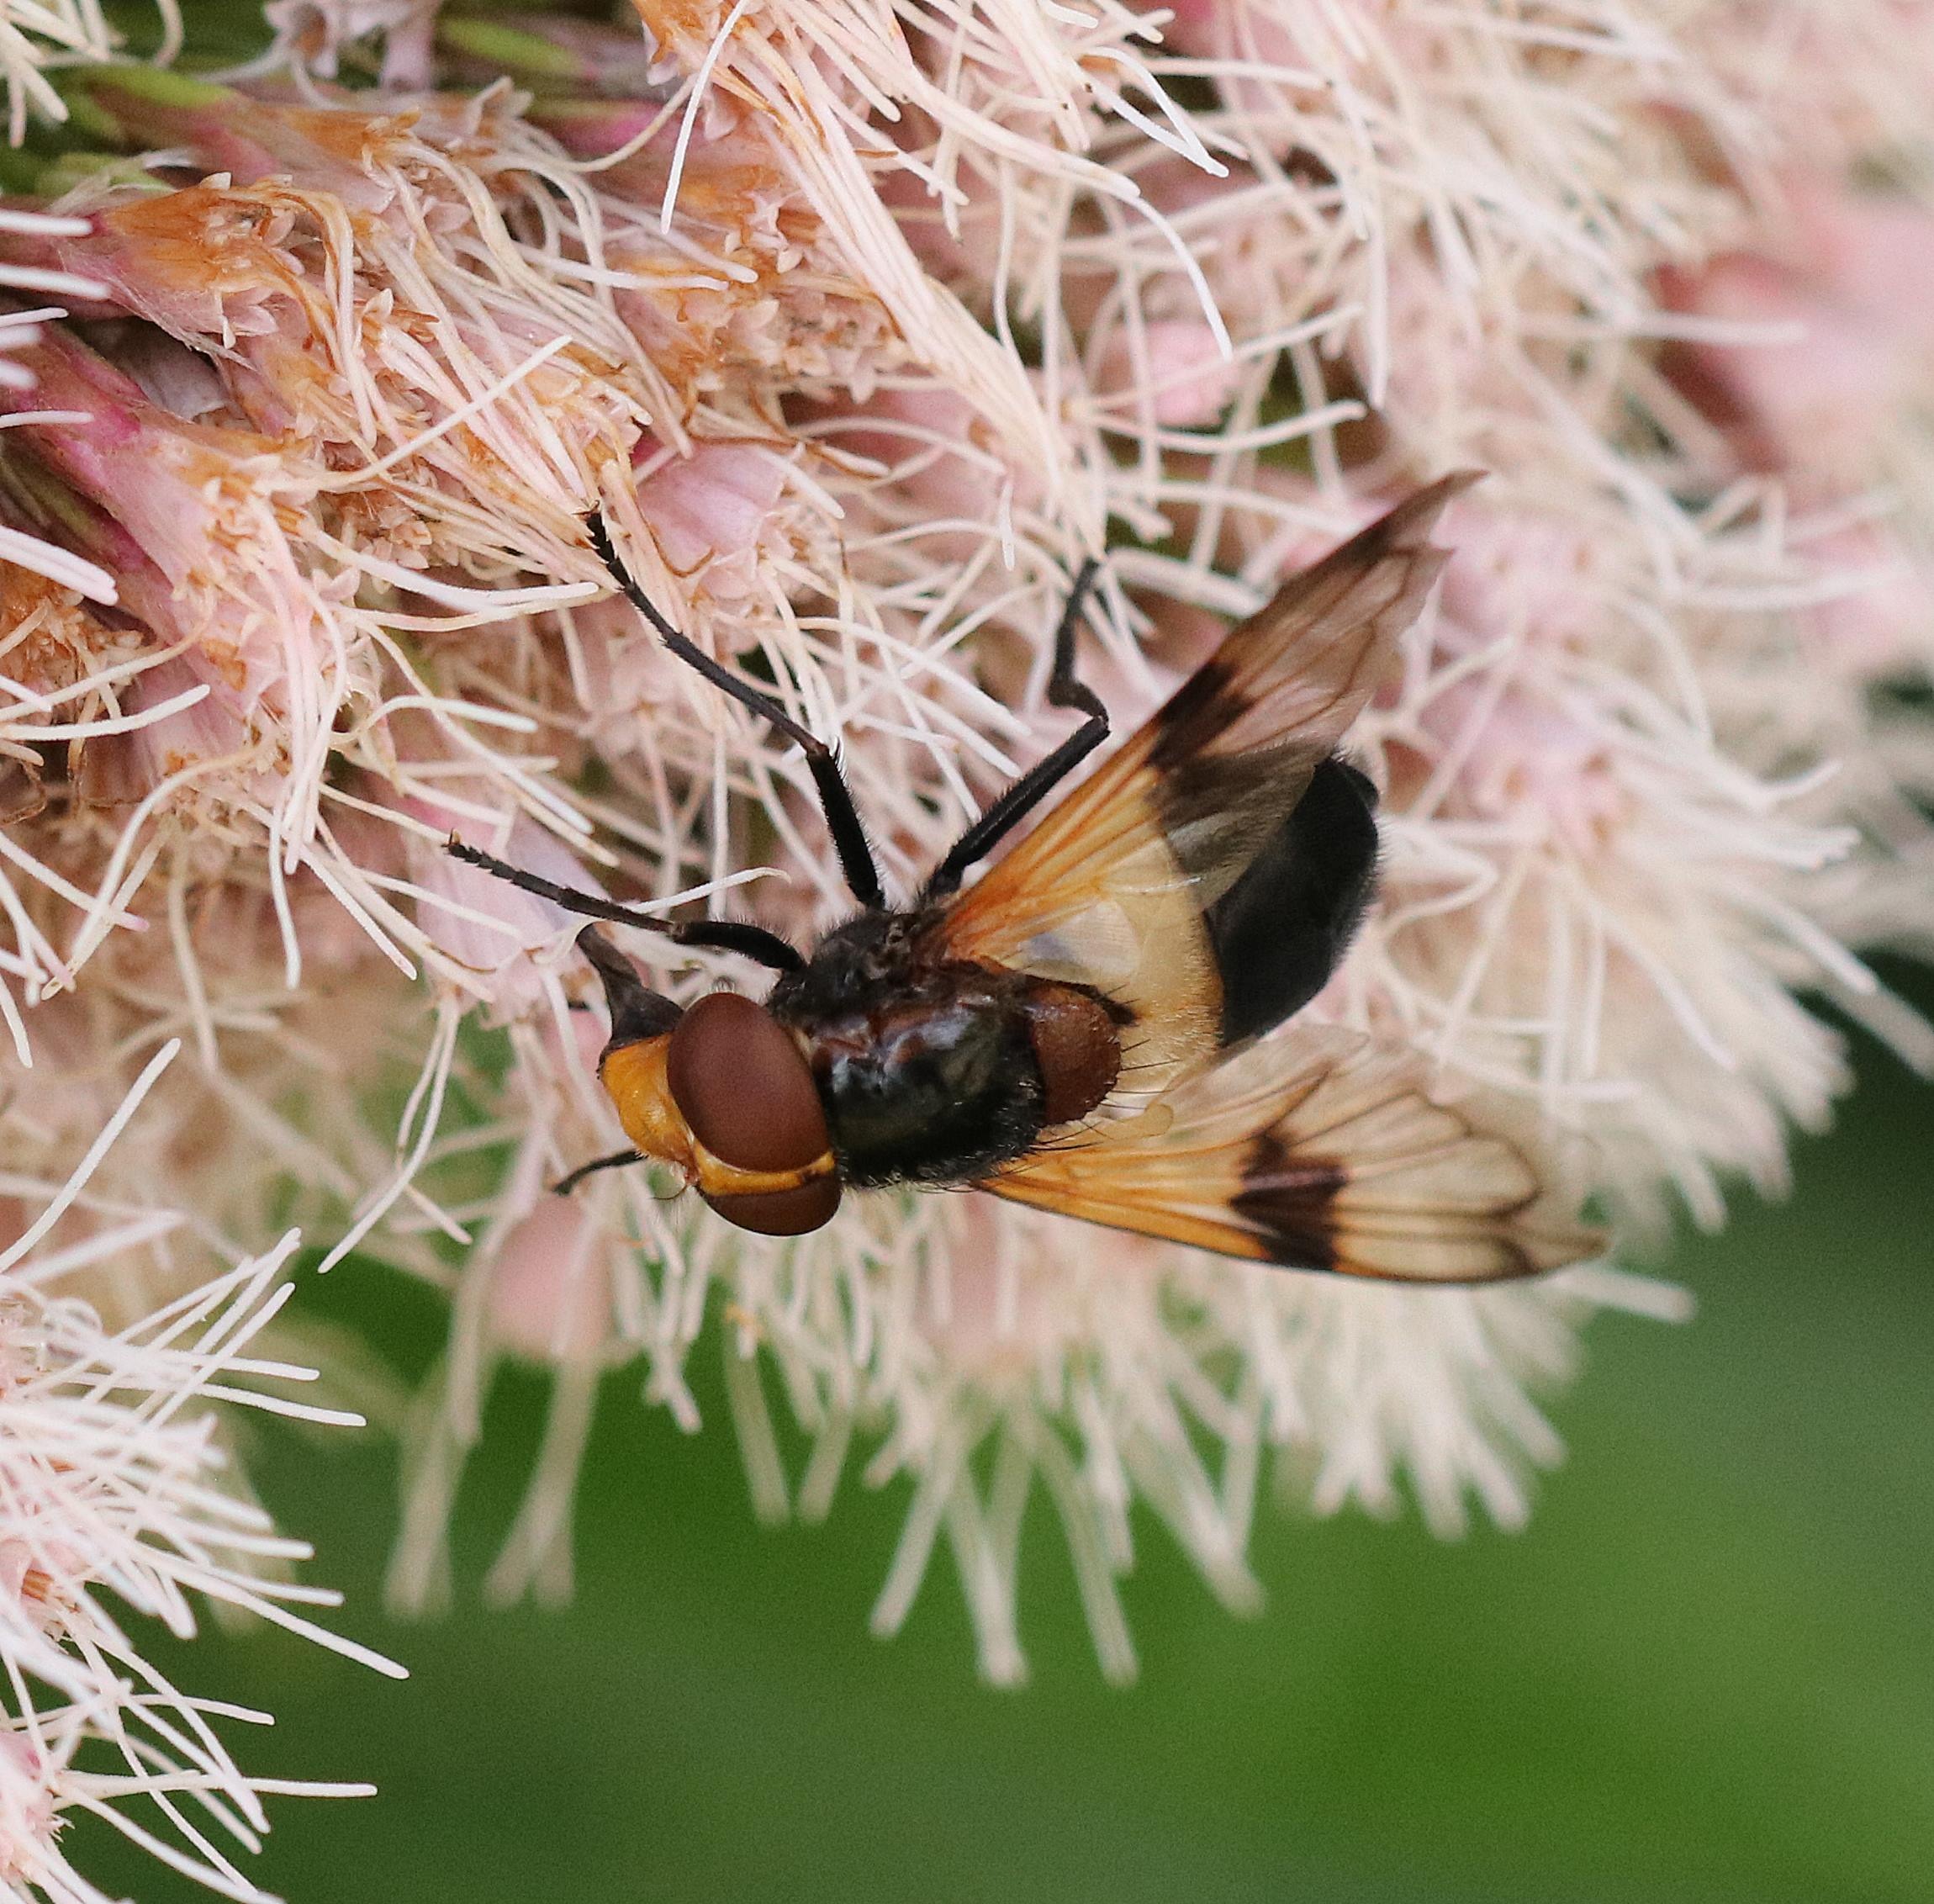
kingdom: Animalia
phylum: Arthropoda
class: Insecta
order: Diptera
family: Syrphidae
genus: Volucella
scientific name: Volucella pellucens
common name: Hvidbåndet humlesvirreflue
